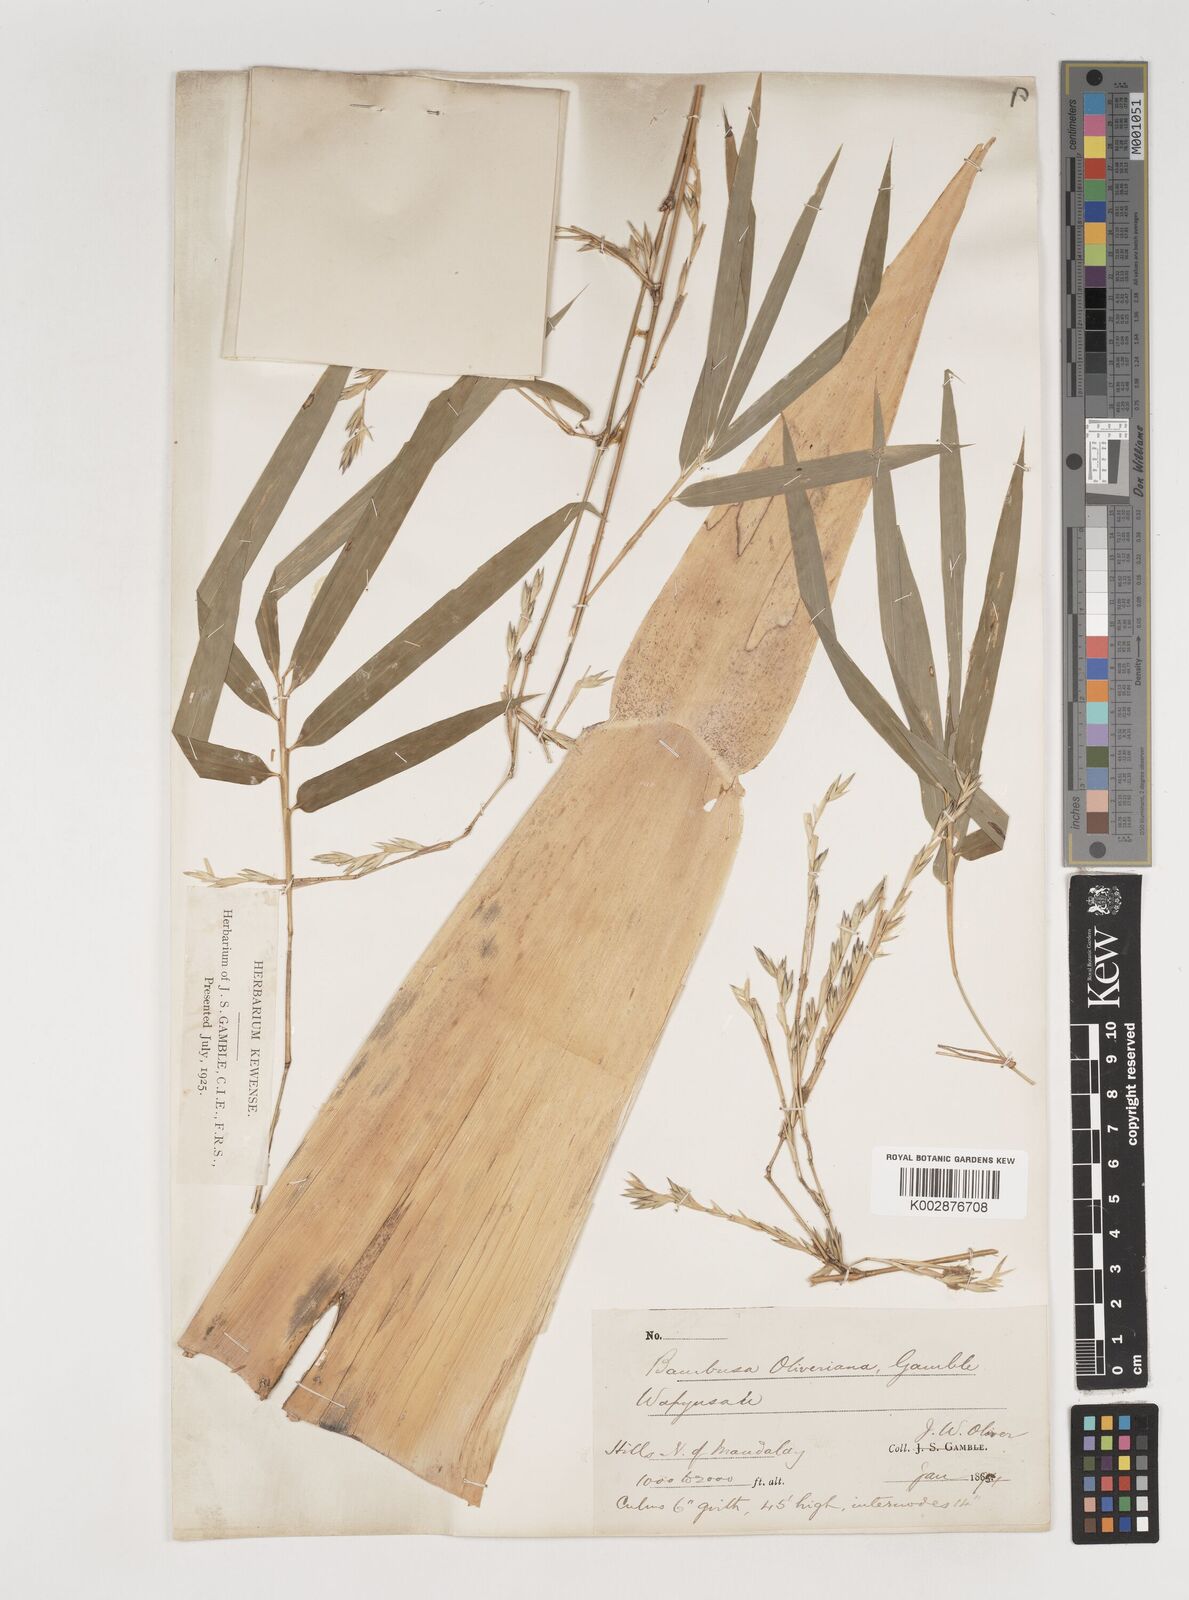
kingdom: Plantae
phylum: Tracheophyta
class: Liliopsida
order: Poales
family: Poaceae
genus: Bambusa
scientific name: Bambusa oliveriana
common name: Bush bamboo
